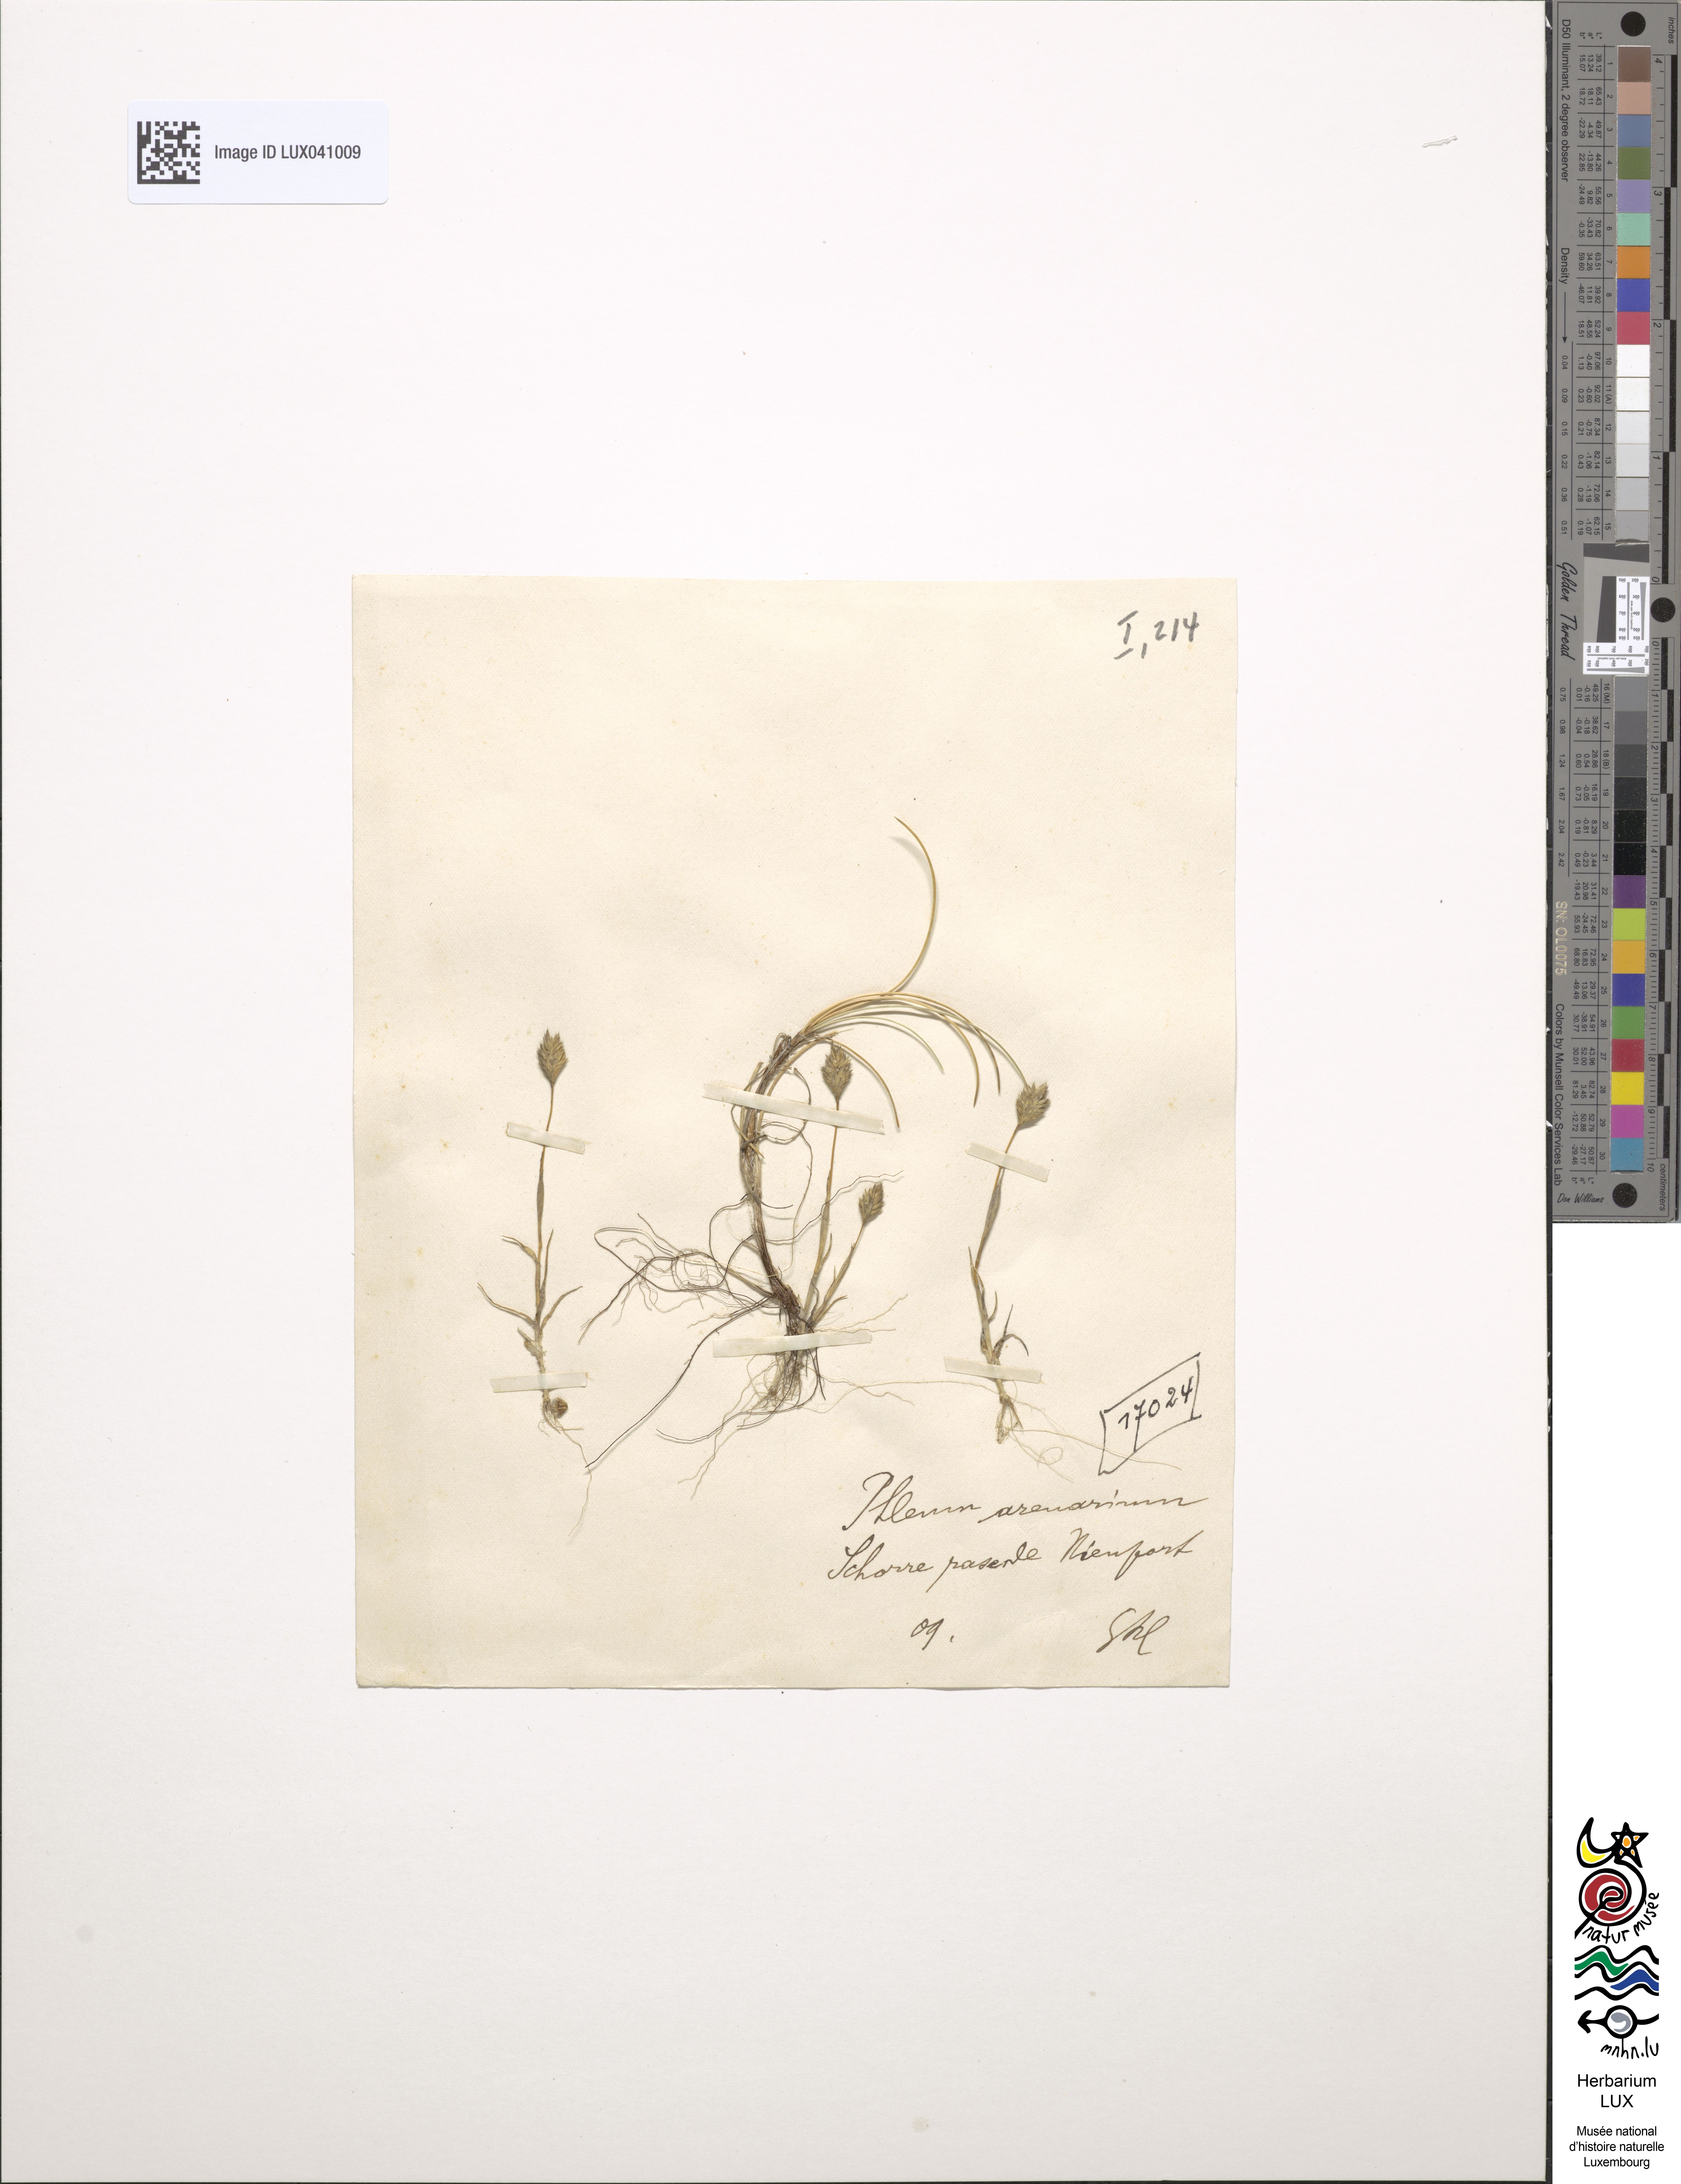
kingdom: Plantae
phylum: Tracheophyta
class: Liliopsida
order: Poales
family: Poaceae
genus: Phleum
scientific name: Phleum arenarium
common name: Sand cat's-tail
